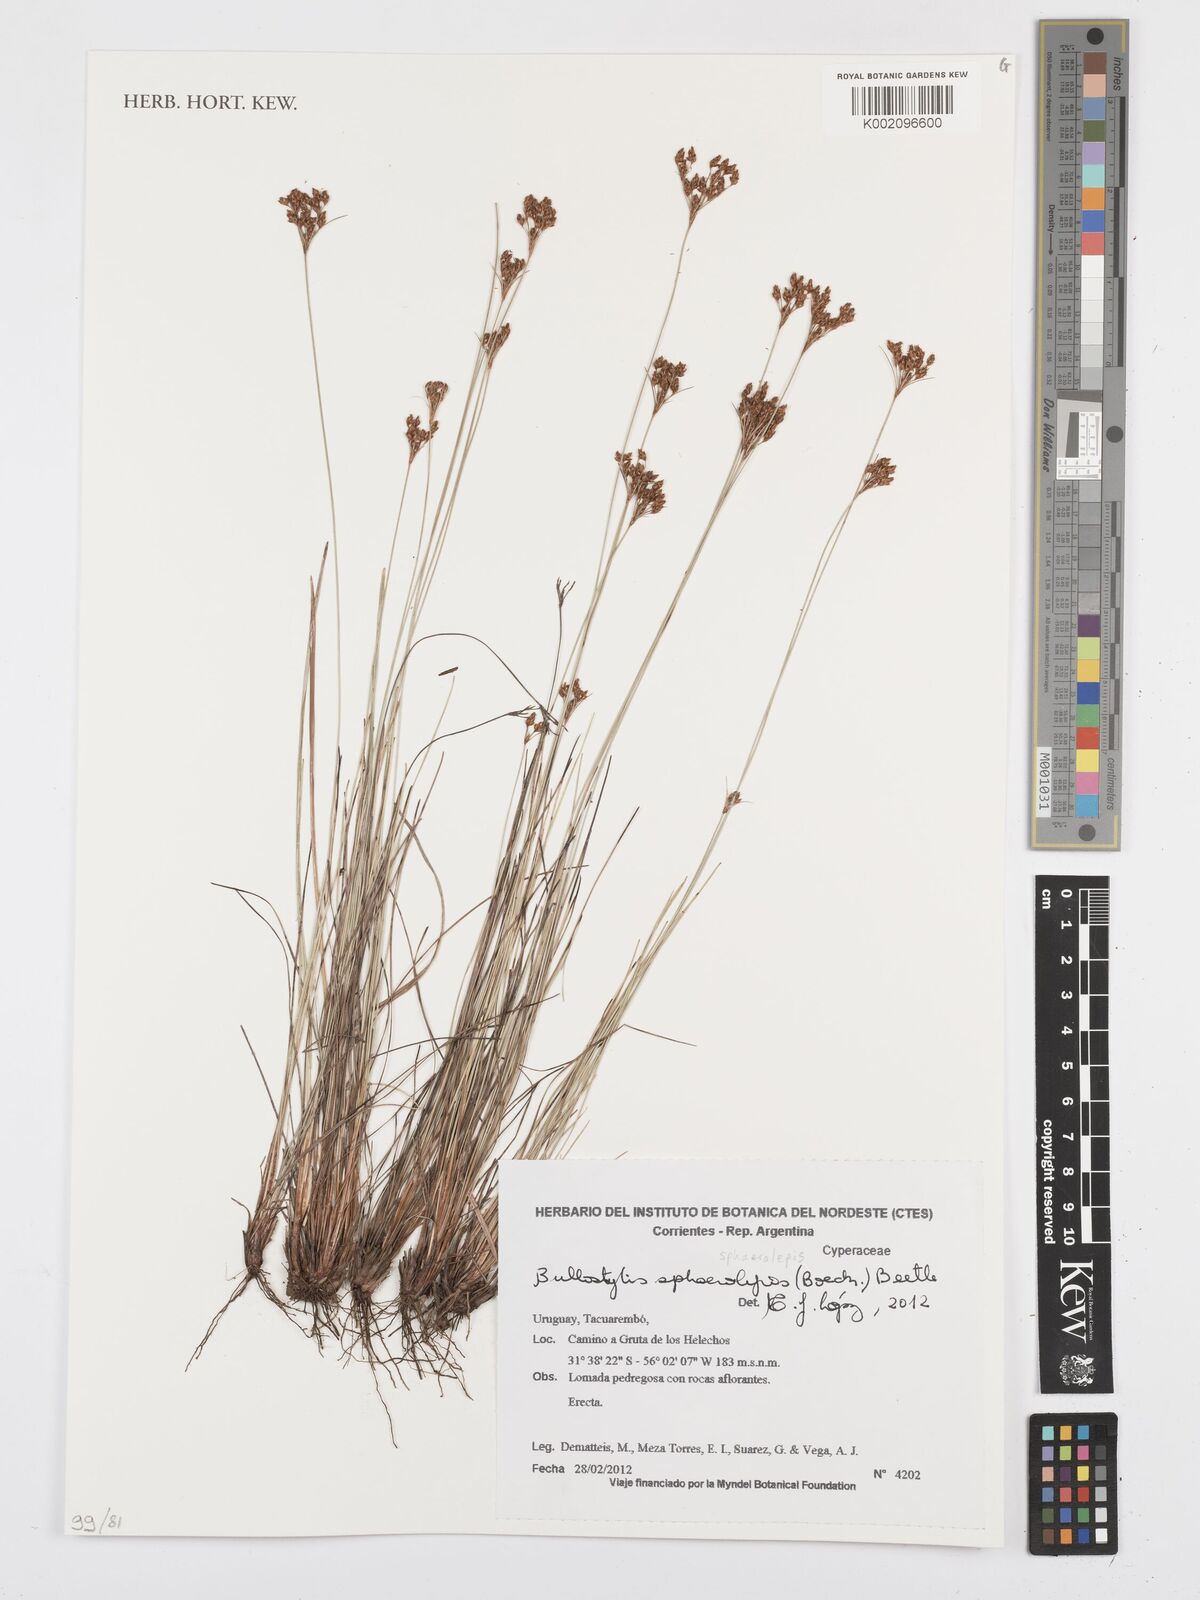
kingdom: Plantae
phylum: Tracheophyta
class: Liliopsida
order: Poales
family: Cyperaceae
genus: Bulbostylis
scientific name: Bulbostylis scabra
